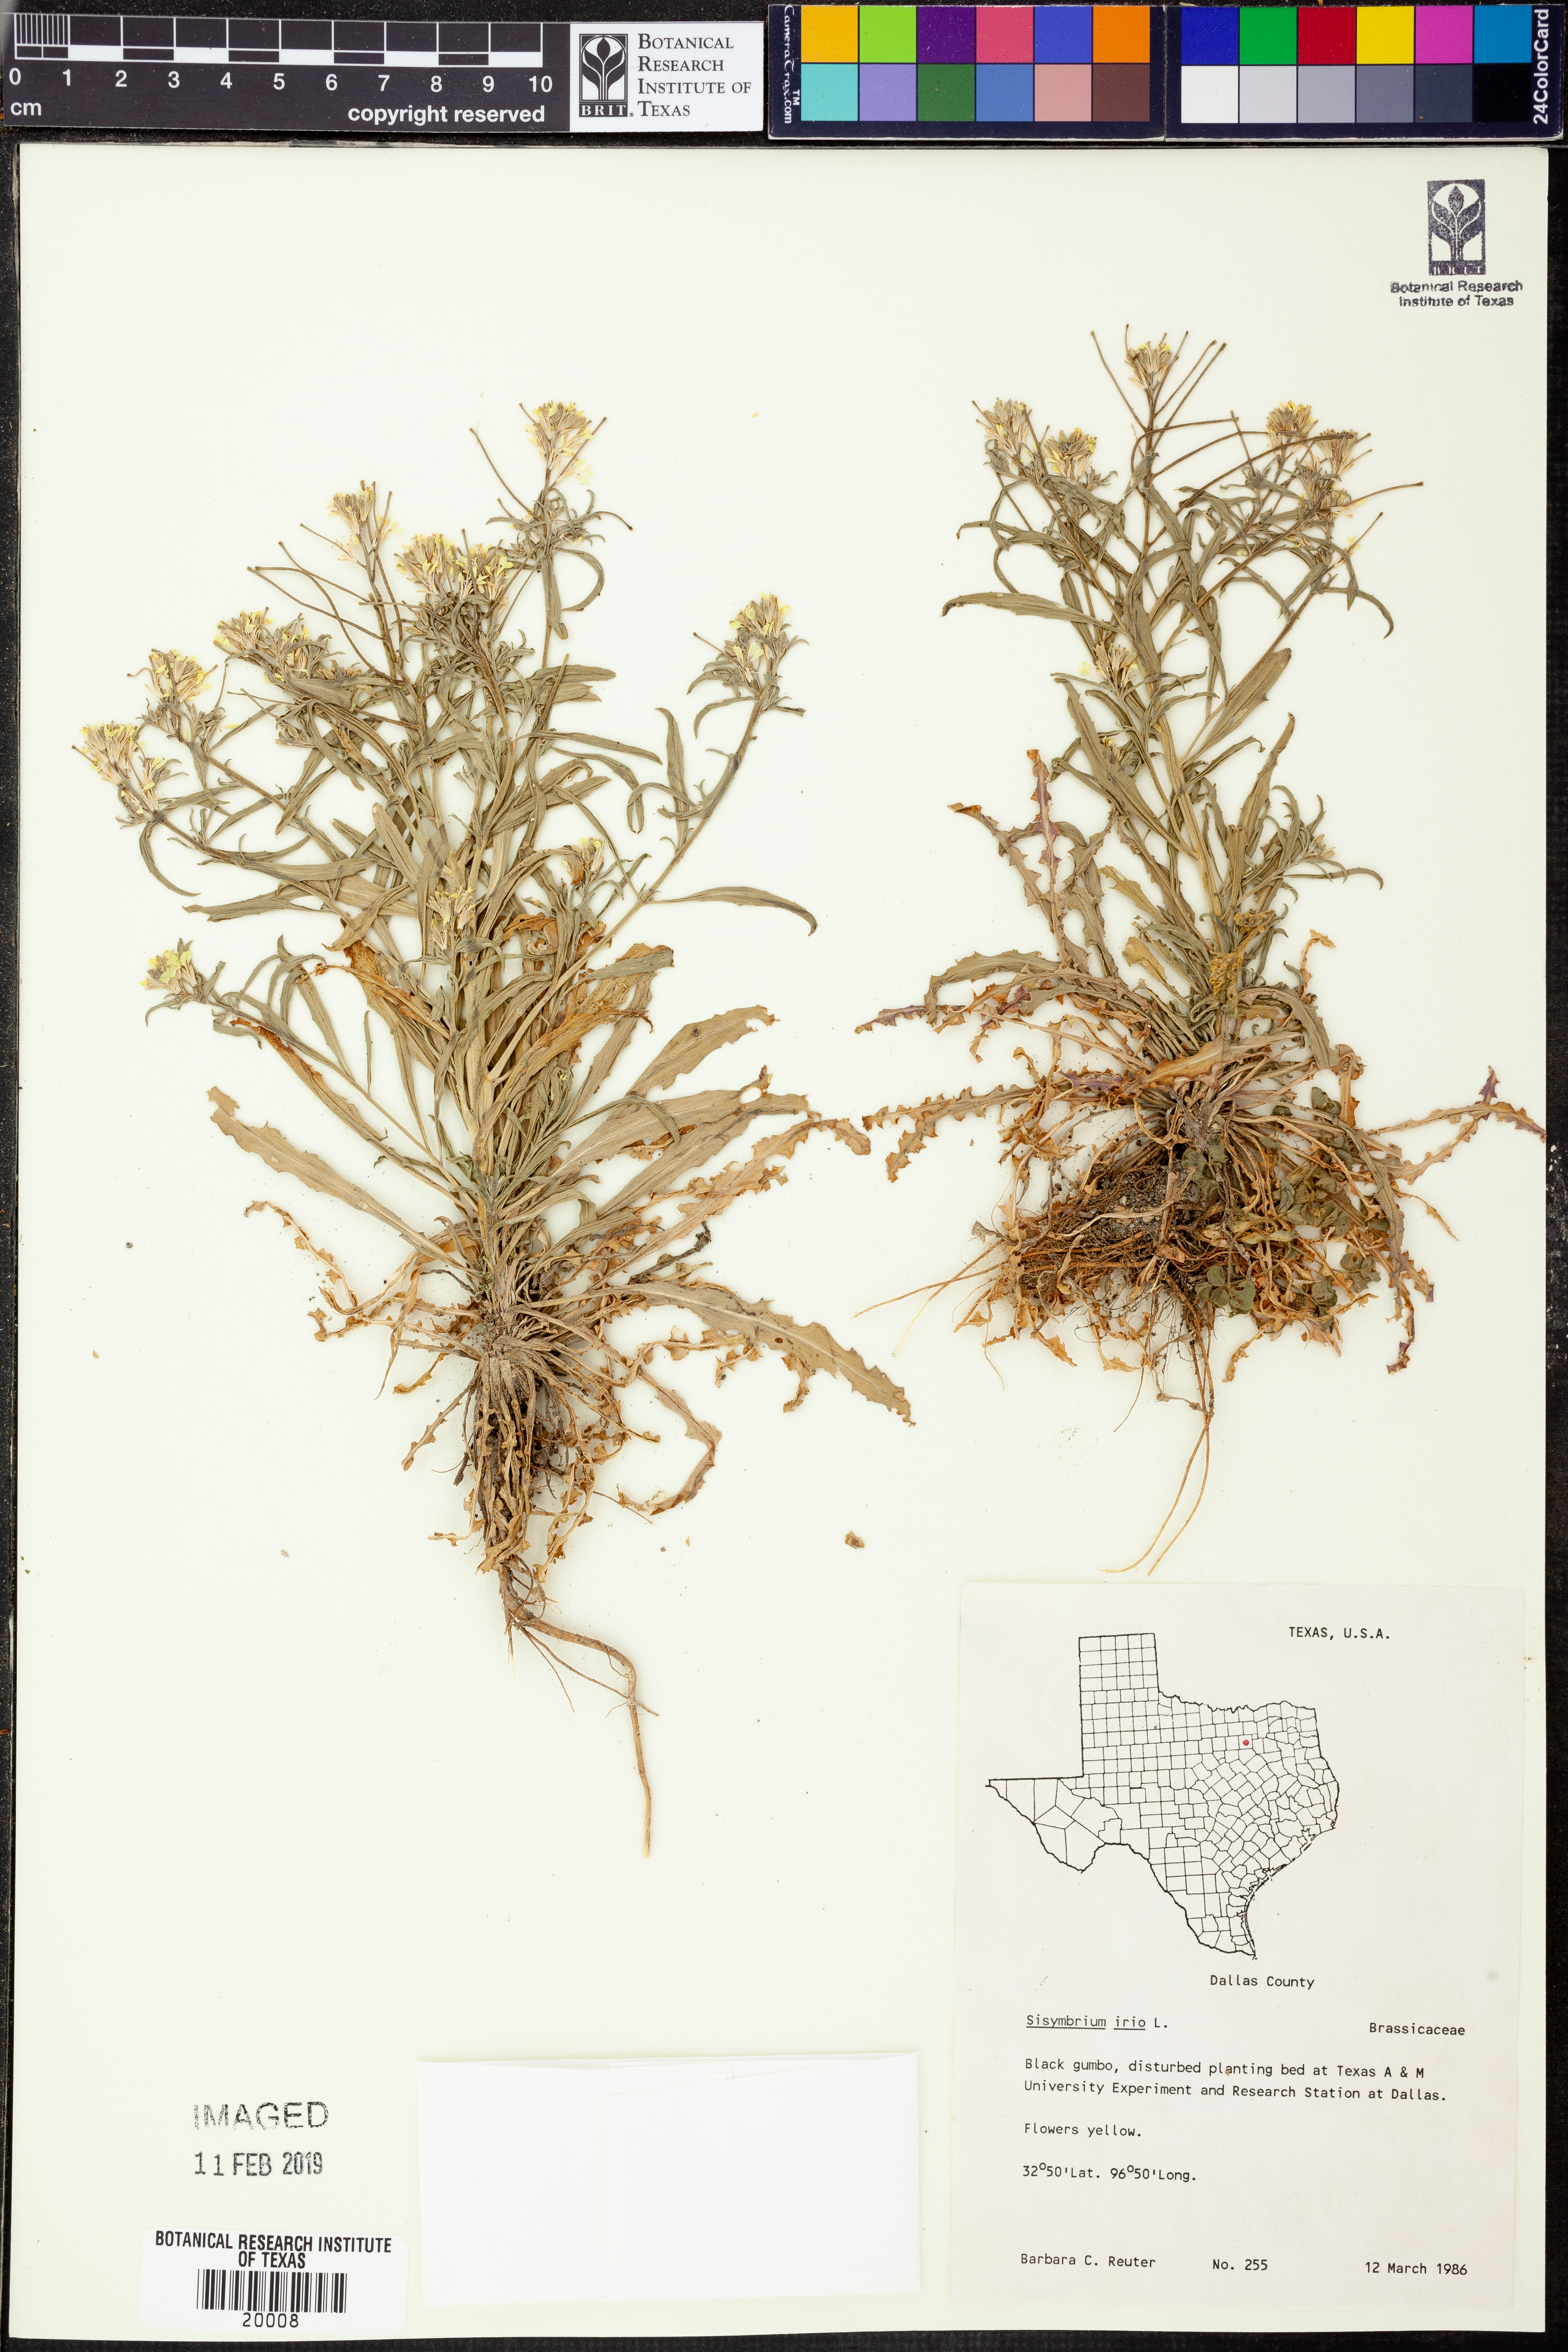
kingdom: Plantae
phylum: Tracheophyta
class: Magnoliopsida
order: Brassicales
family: Brassicaceae
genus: Sisymbrium
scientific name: Sisymbrium irio
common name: London rocket
